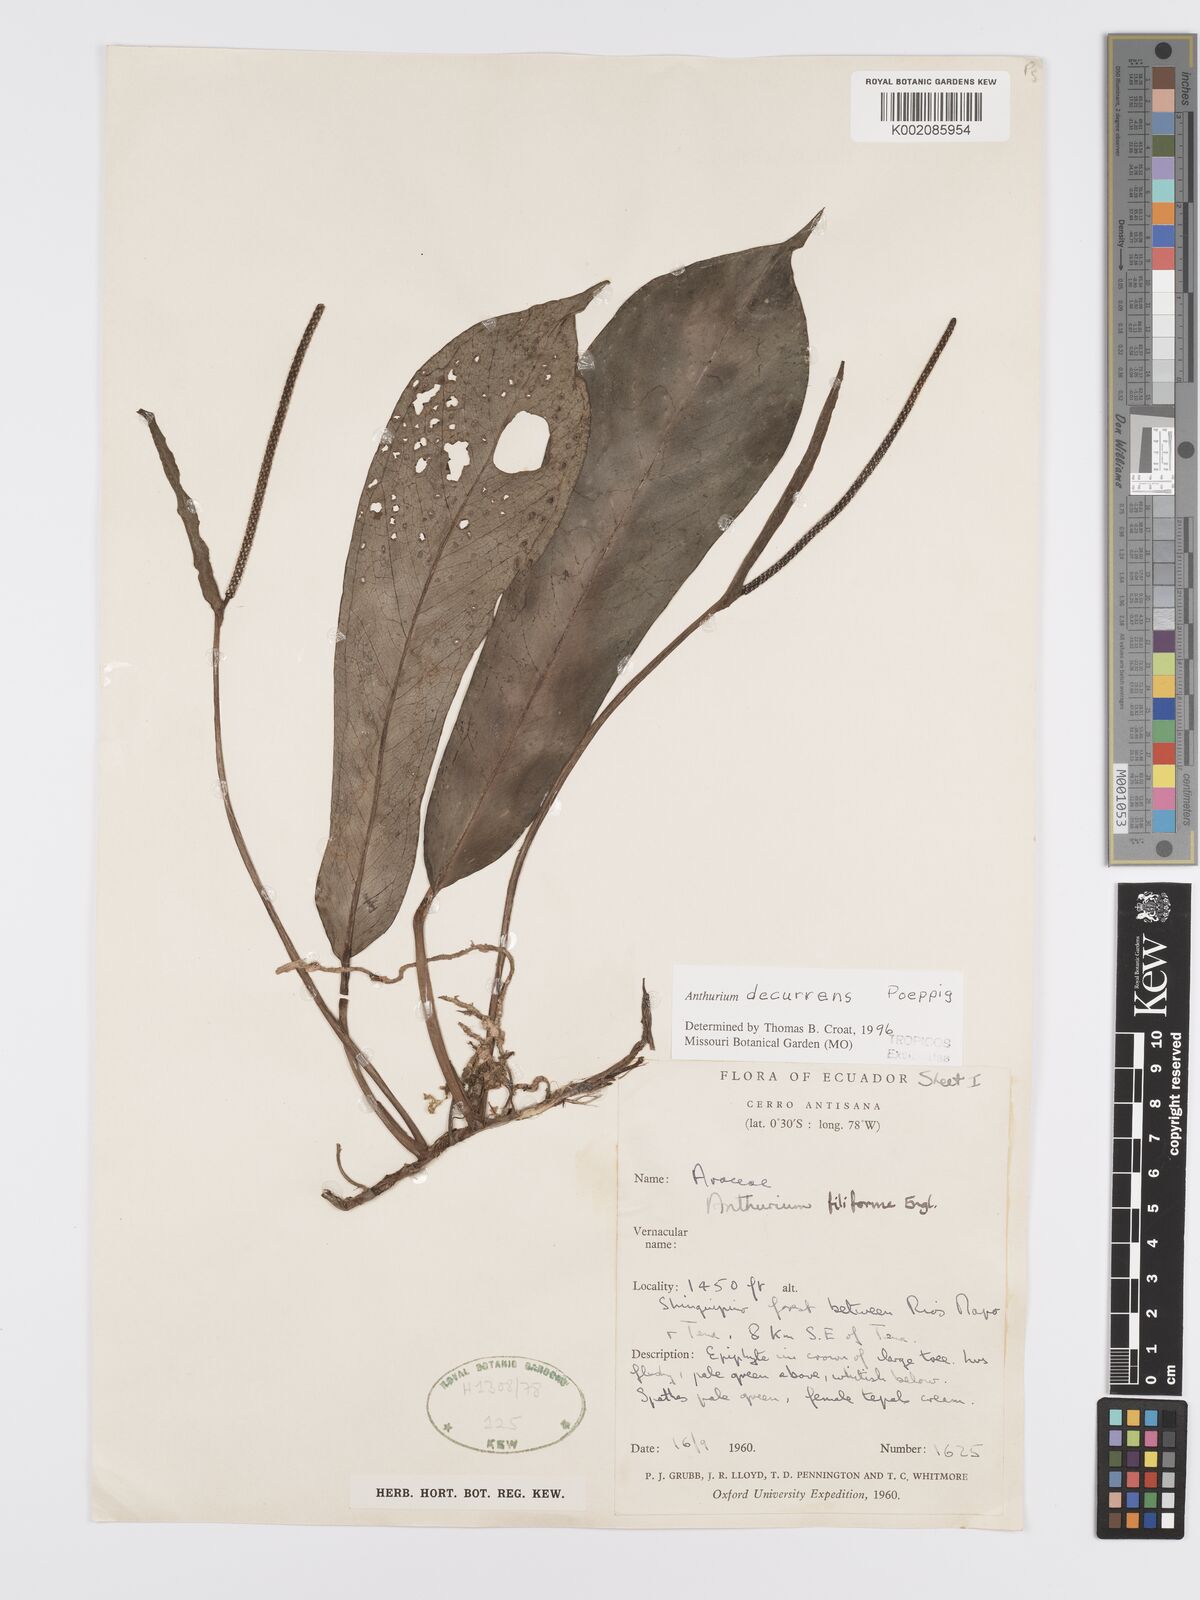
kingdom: Plantae
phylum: Tracheophyta
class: Liliopsida
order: Alismatales
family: Araceae
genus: Anthurium
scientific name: Anthurium decurrens
